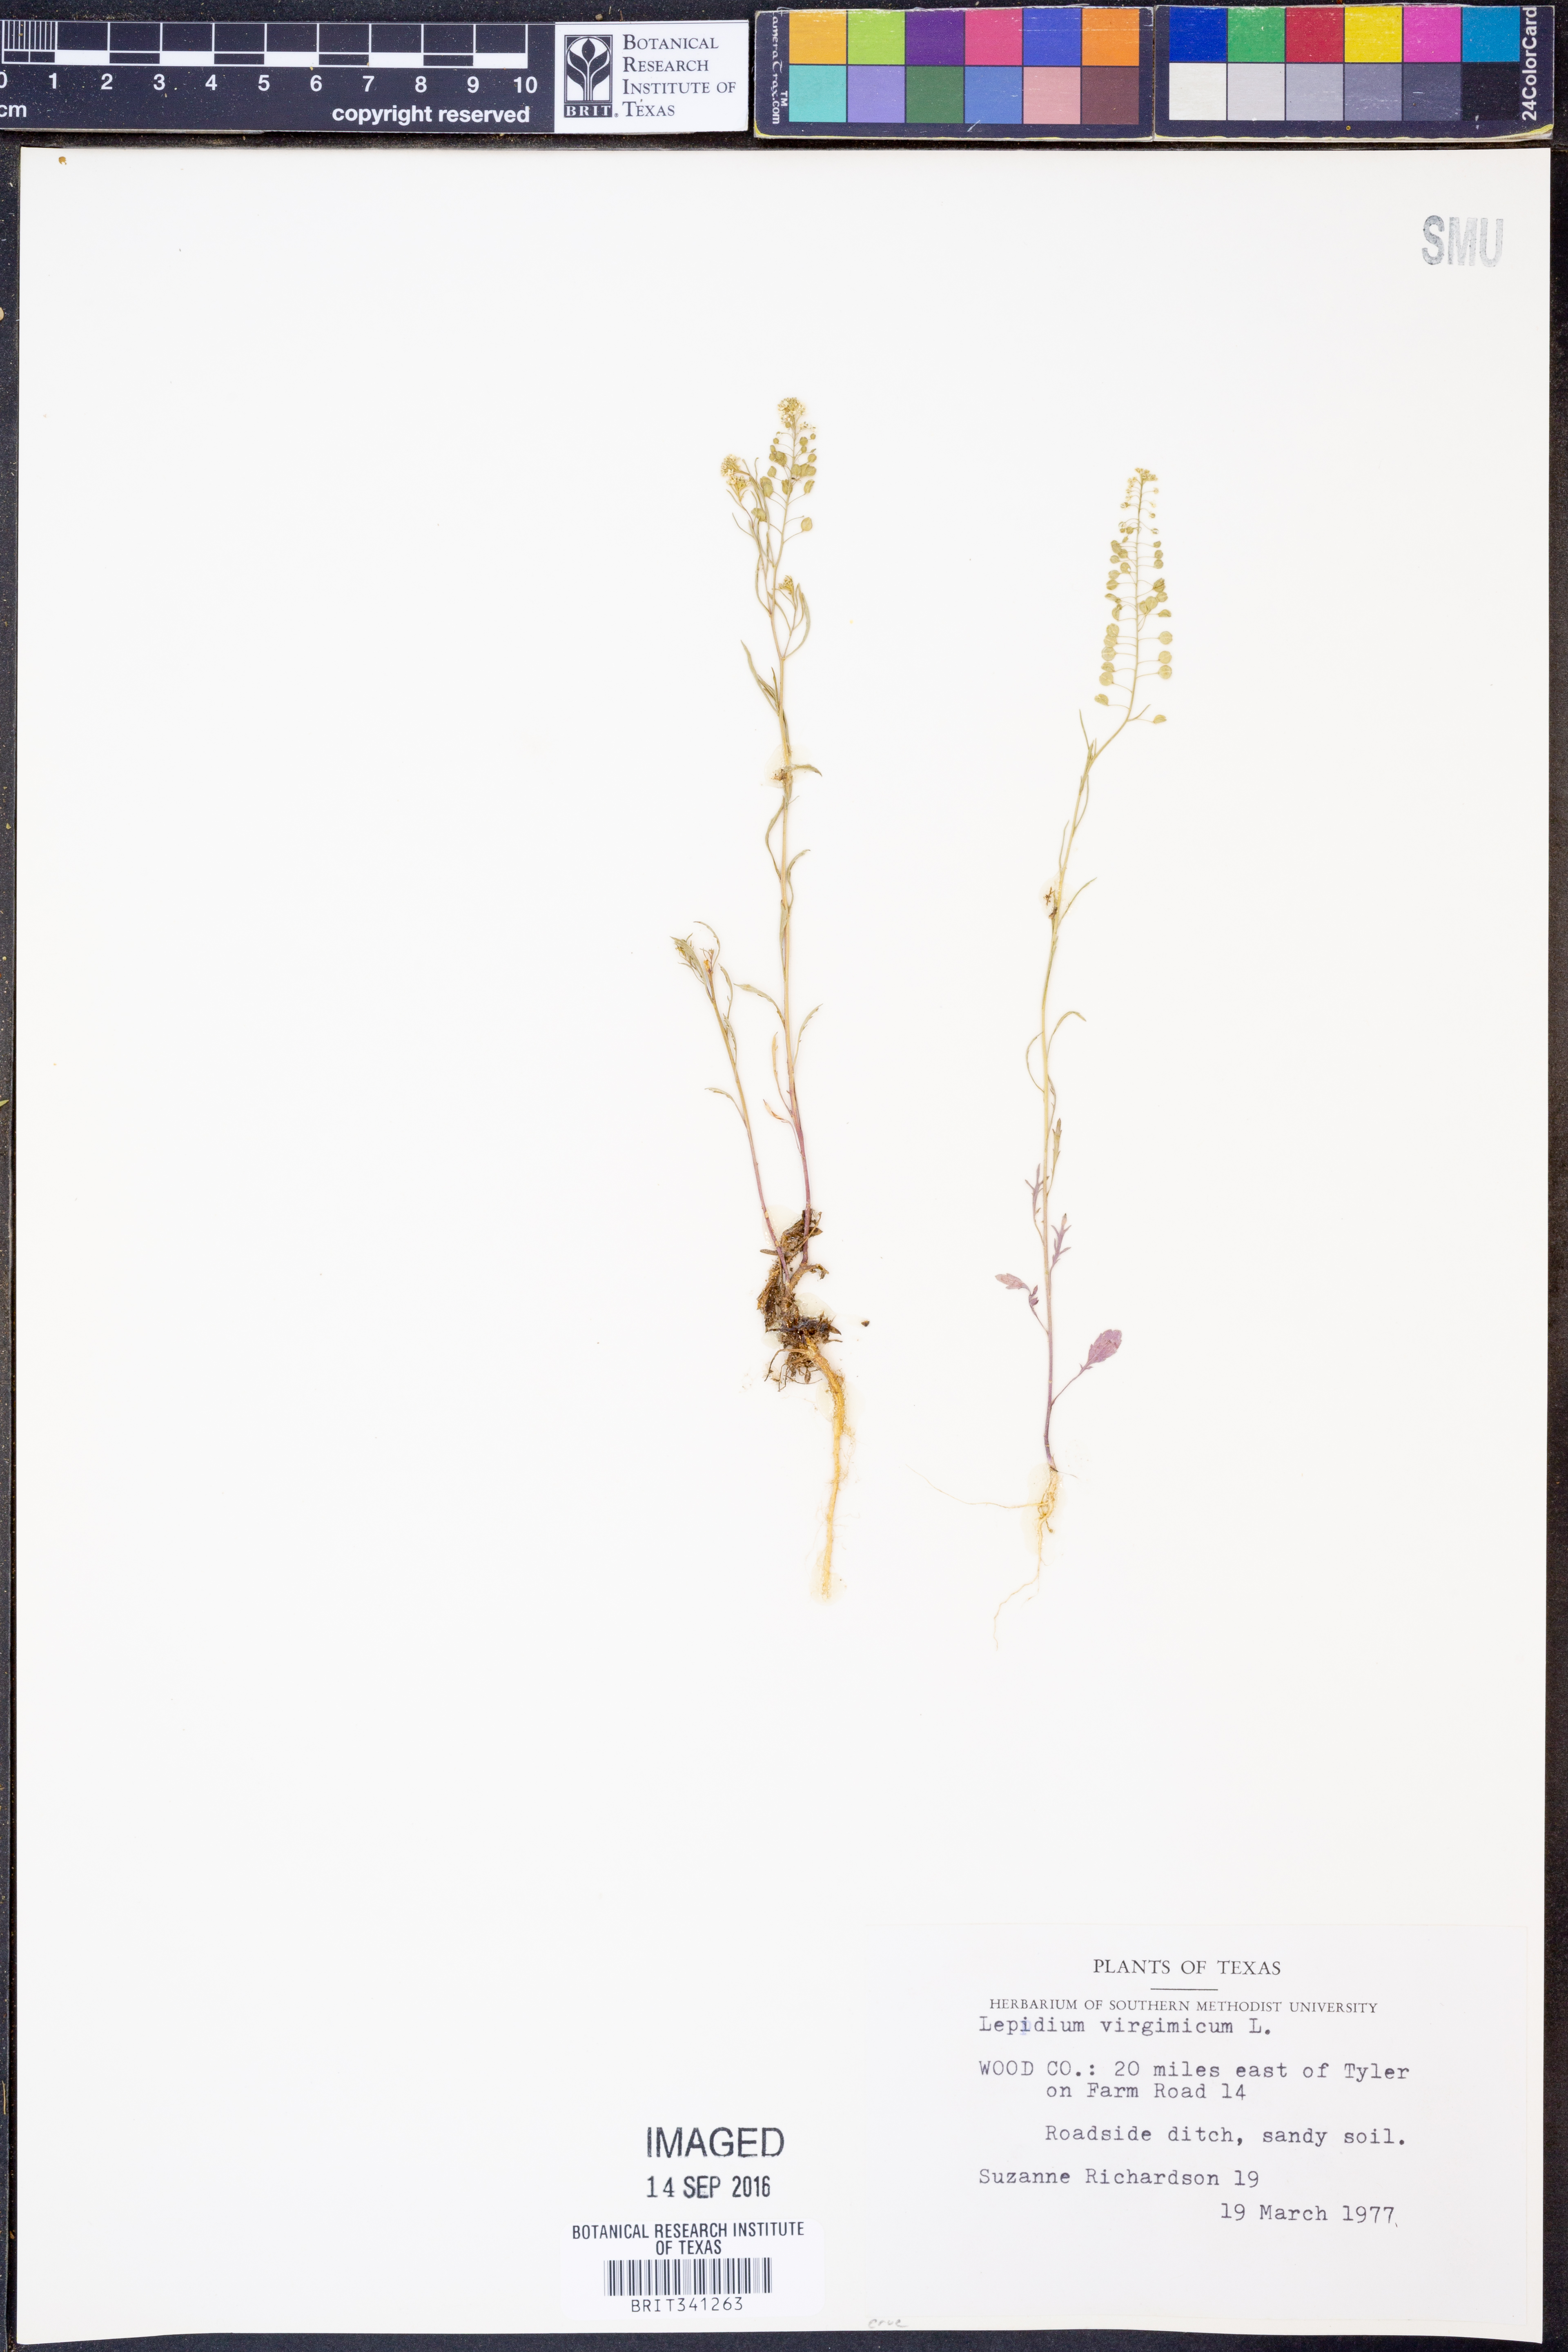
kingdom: Plantae
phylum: Tracheophyta
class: Magnoliopsida
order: Brassicales
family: Brassicaceae
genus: Lepidium
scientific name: Lepidium virginicum
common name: Least pepperwort
